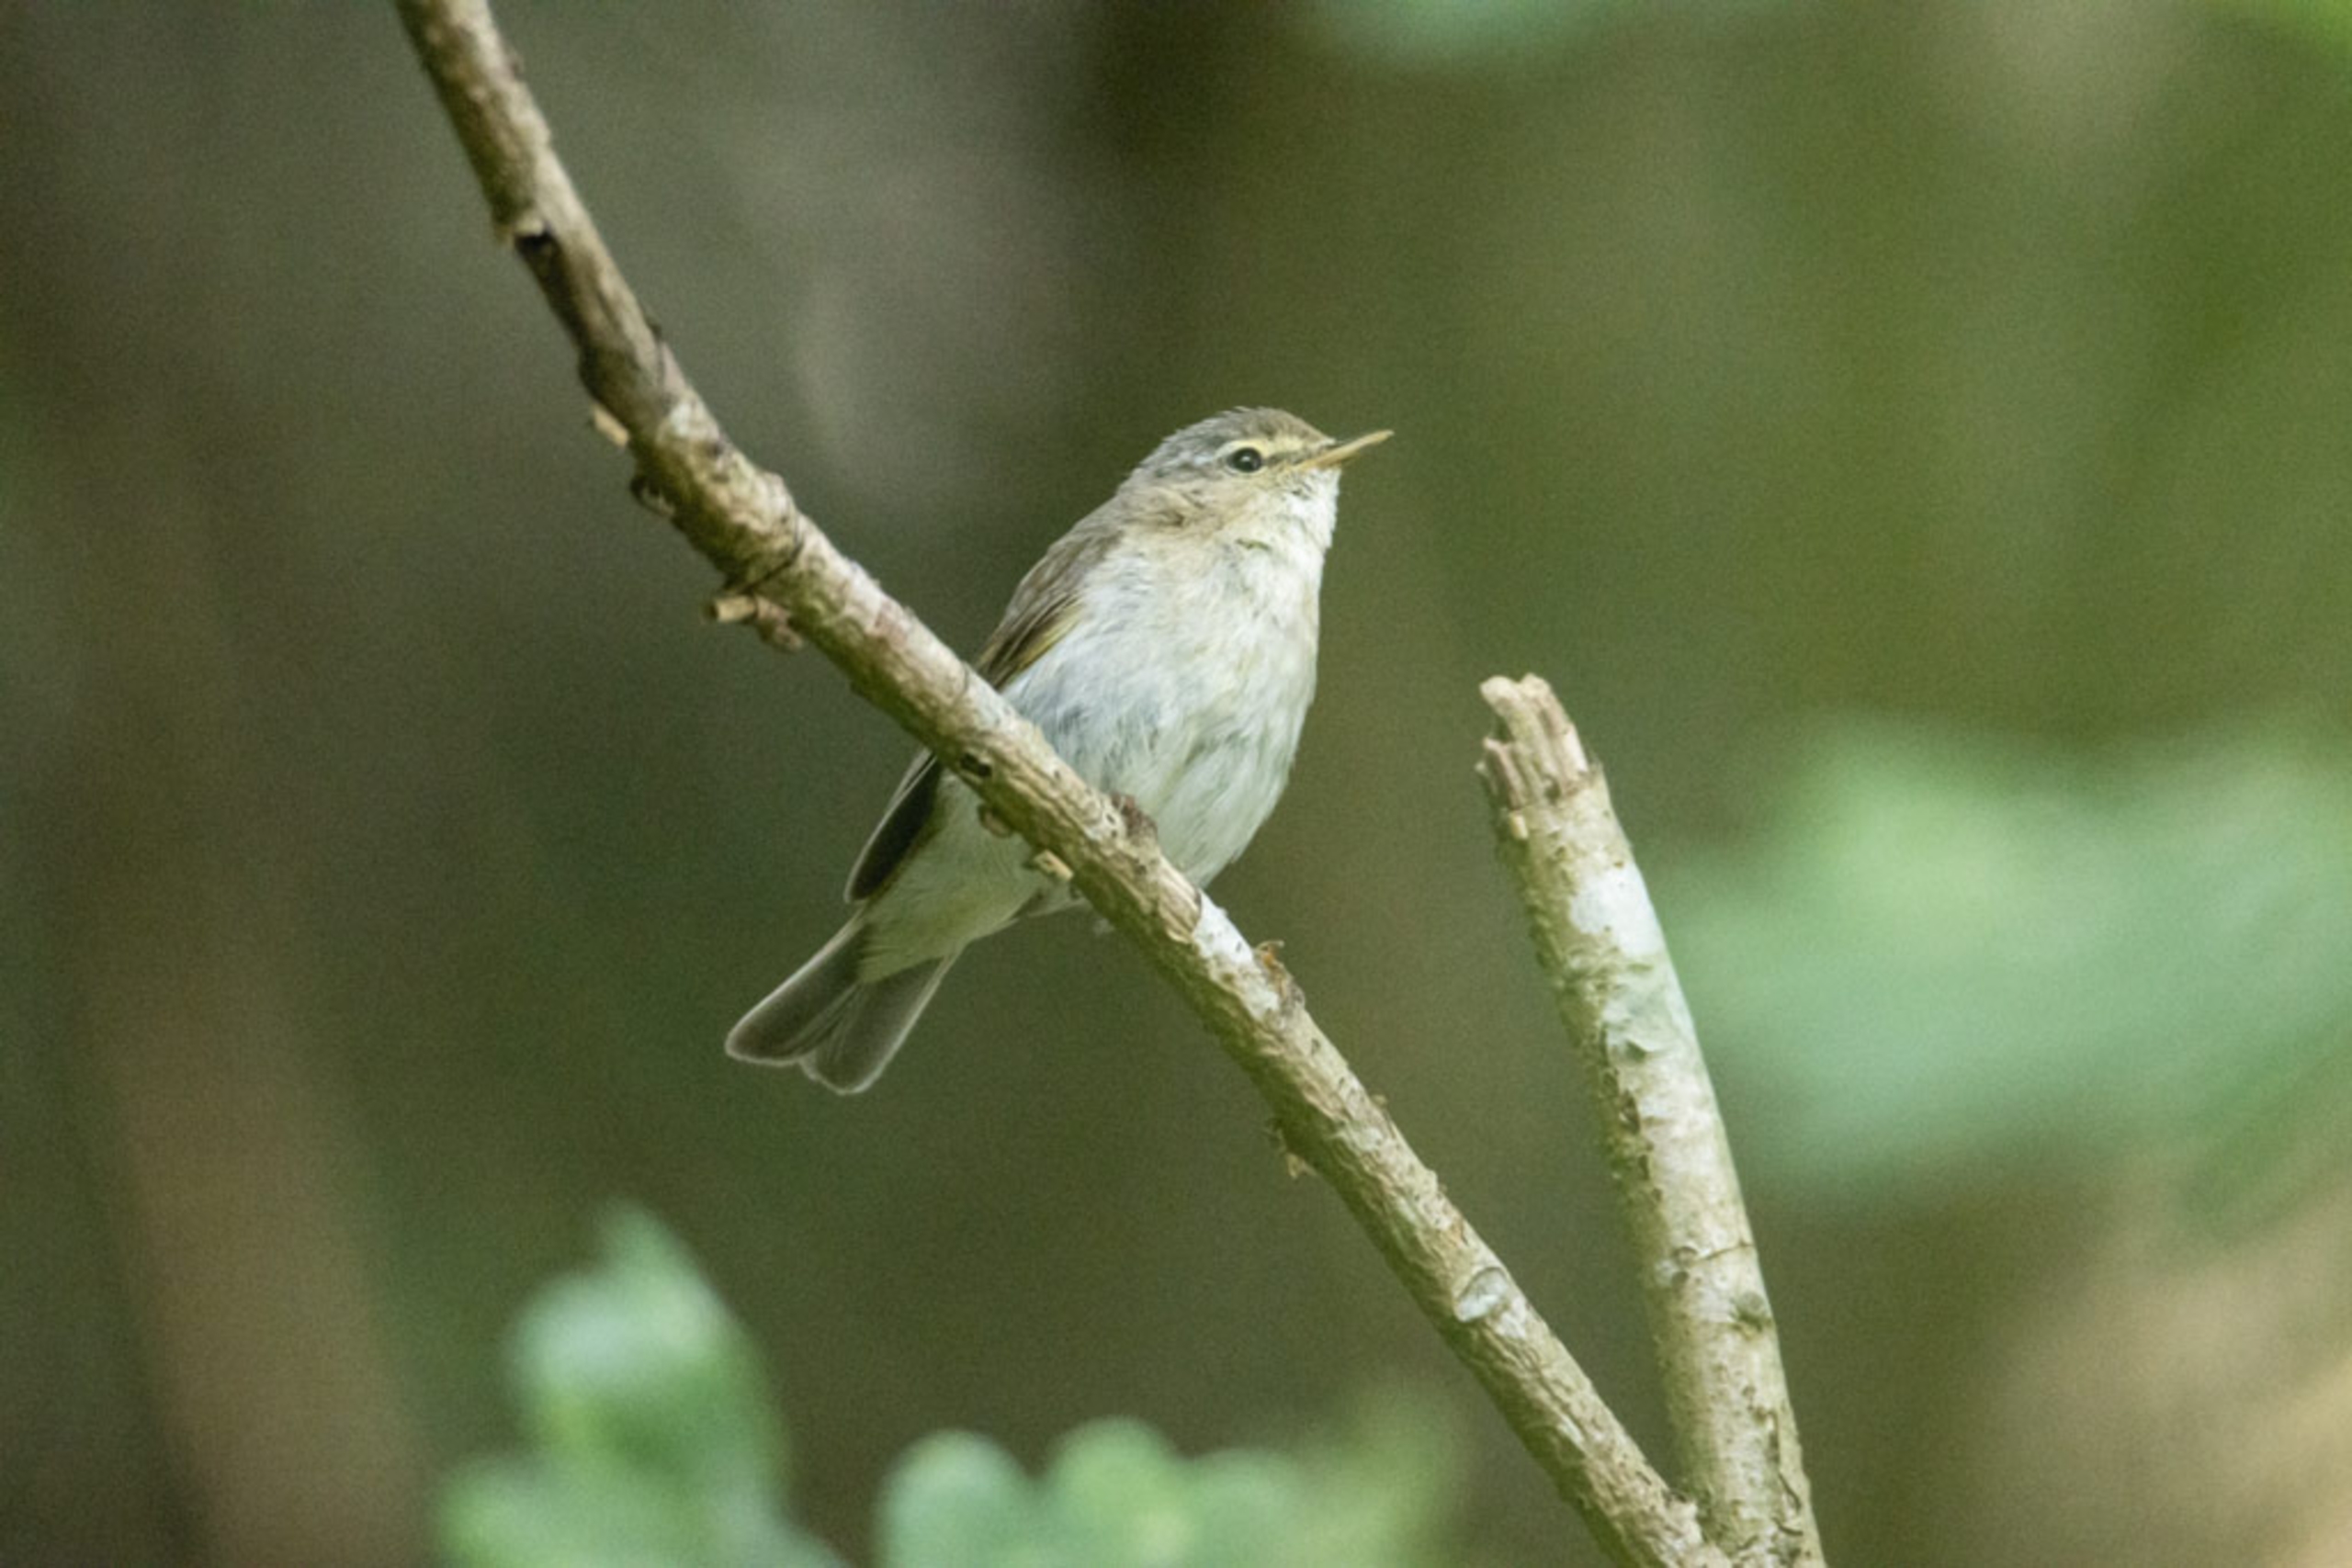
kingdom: Animalia
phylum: Chordata
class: Aves
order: Passeriformes
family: Phylloscopidae
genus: Phylloscopus
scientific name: Phylloscopus trochilus
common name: Løvsanger
